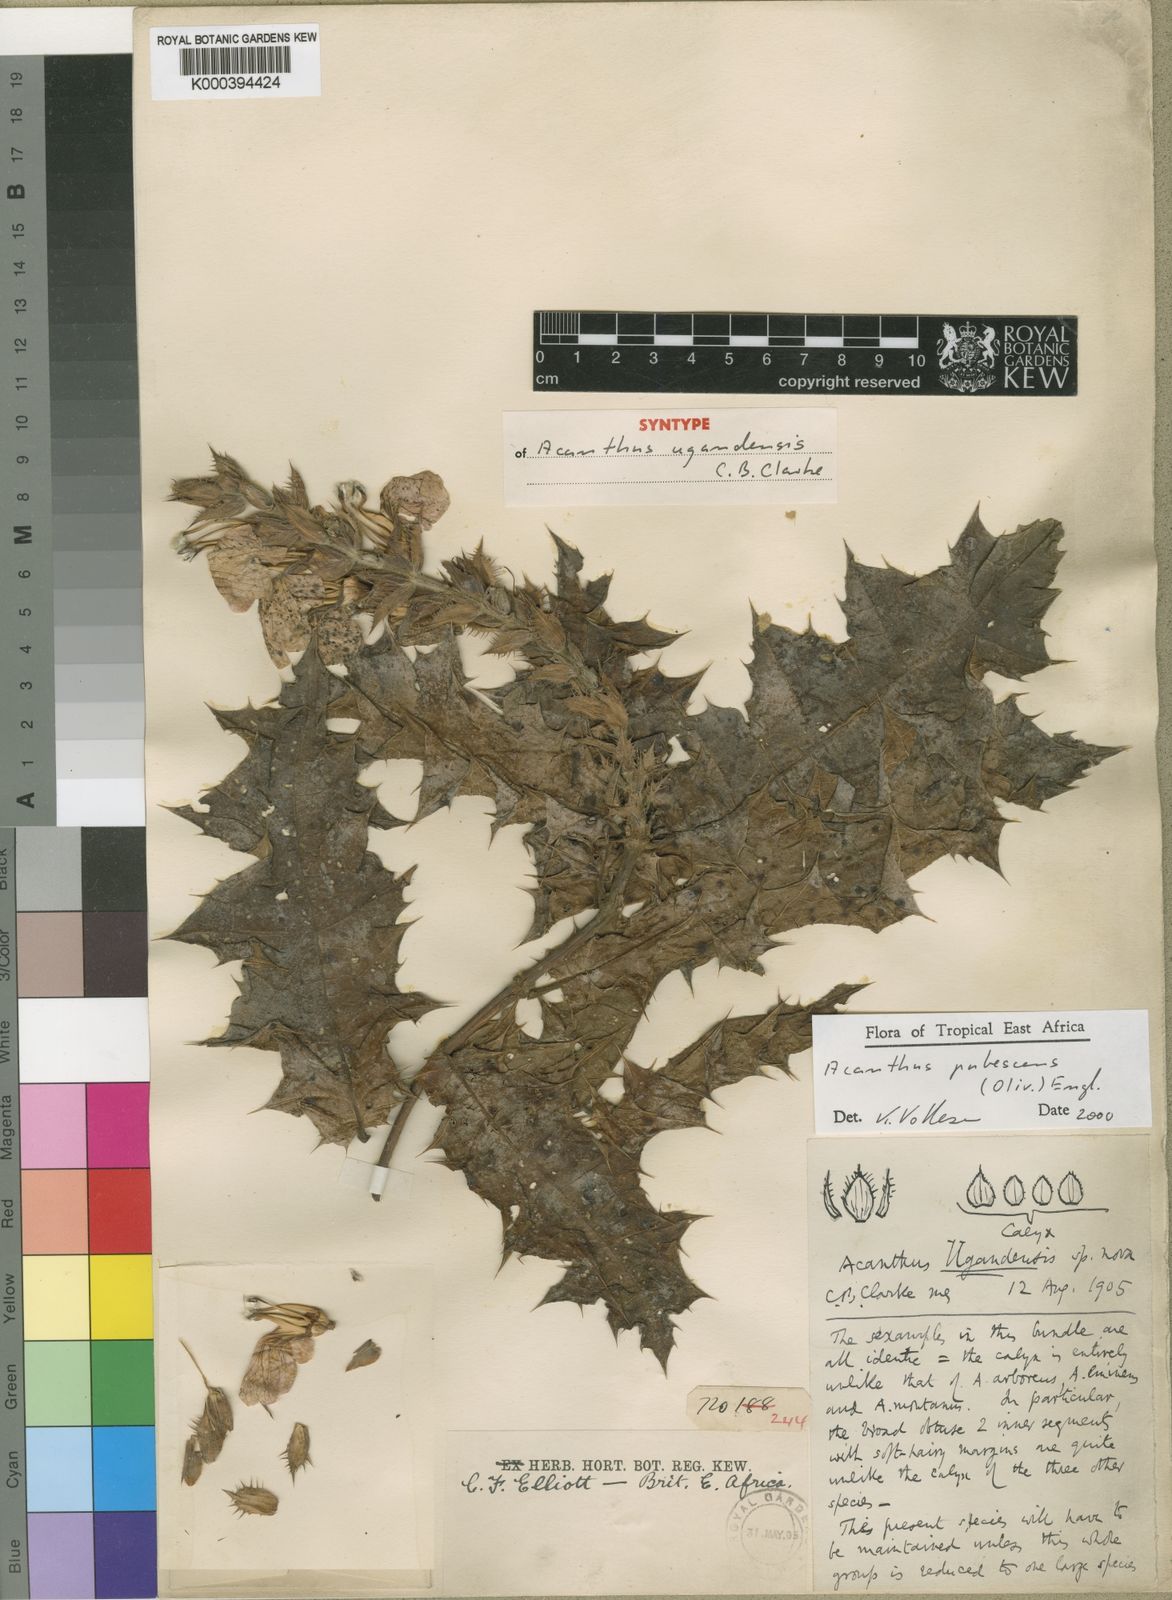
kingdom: Plantae
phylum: Tracheophyta
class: Magnoliopsida
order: Lamiales
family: Acanthaceae
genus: Acanthus
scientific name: Acanthus pubescens
